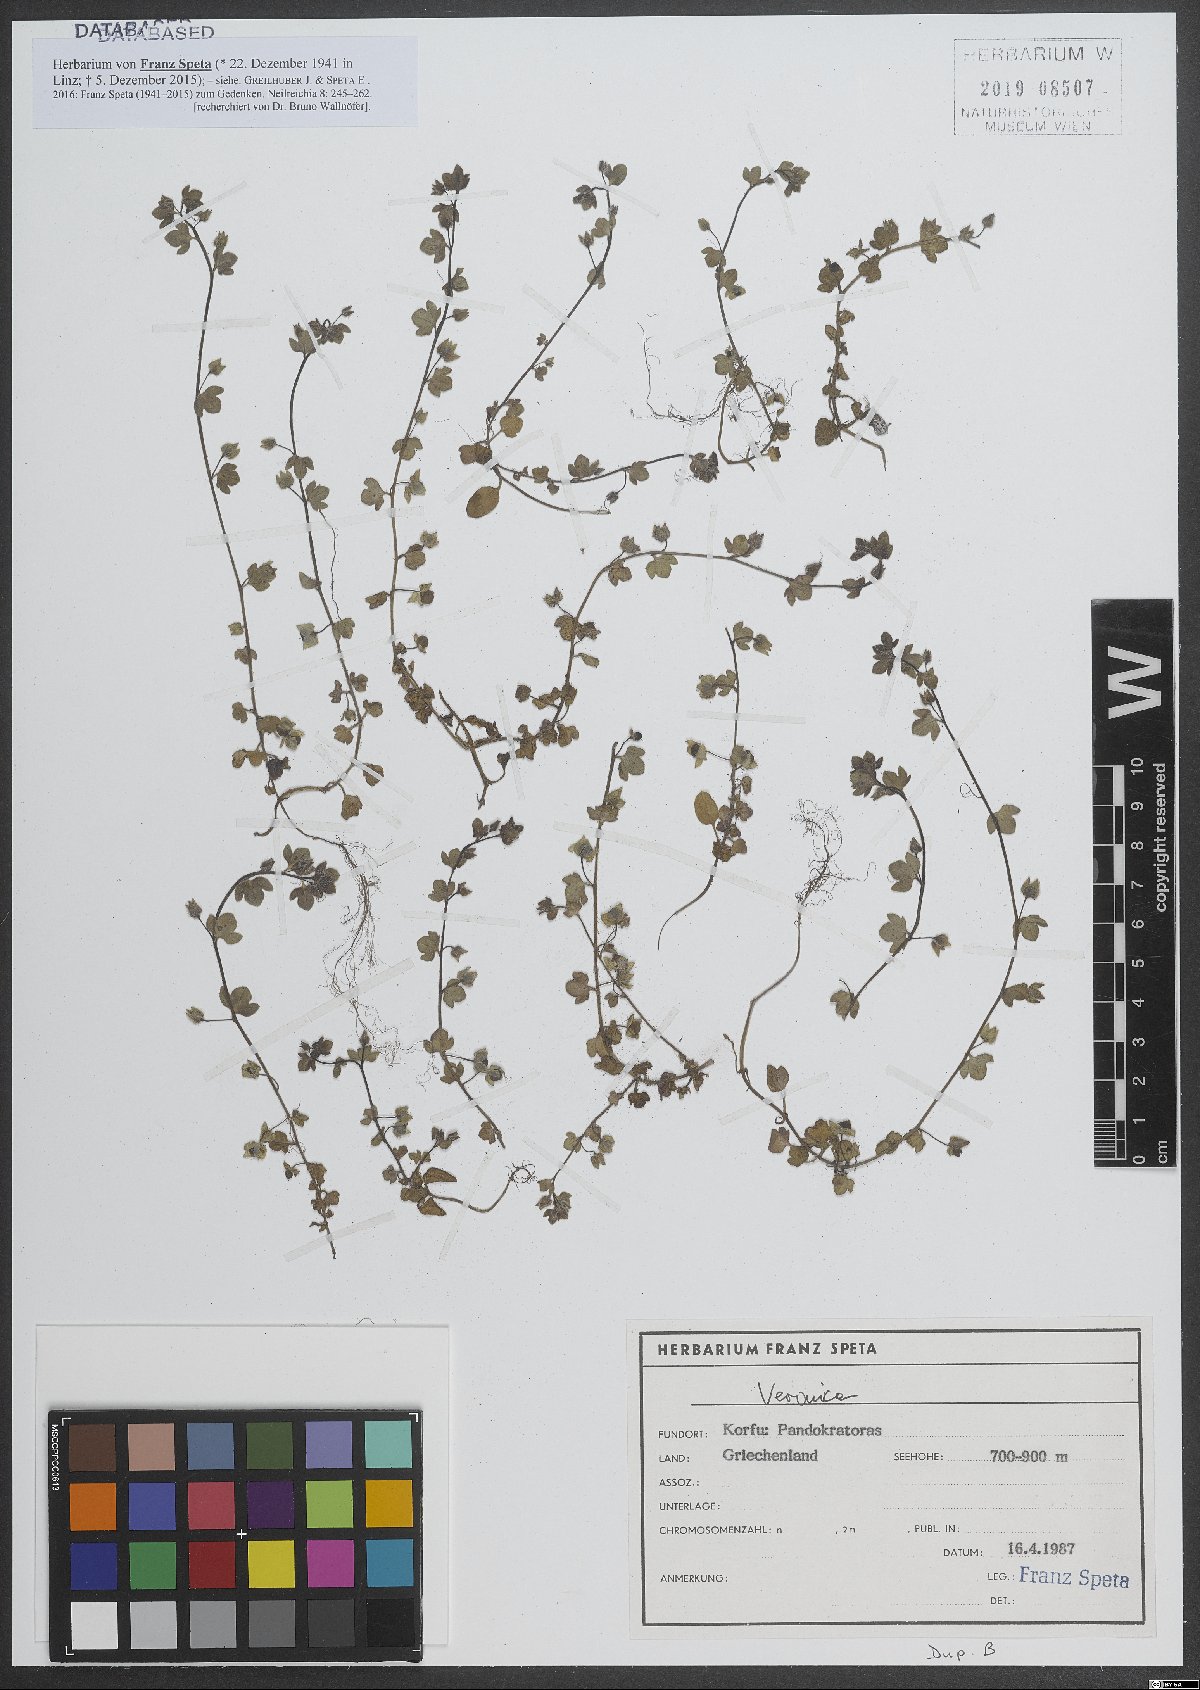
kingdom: Plantae
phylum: Tracheophyta
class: Magnoliopsida
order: Lamiales
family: Plantaginaceae
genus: Veronica
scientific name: Veronica
